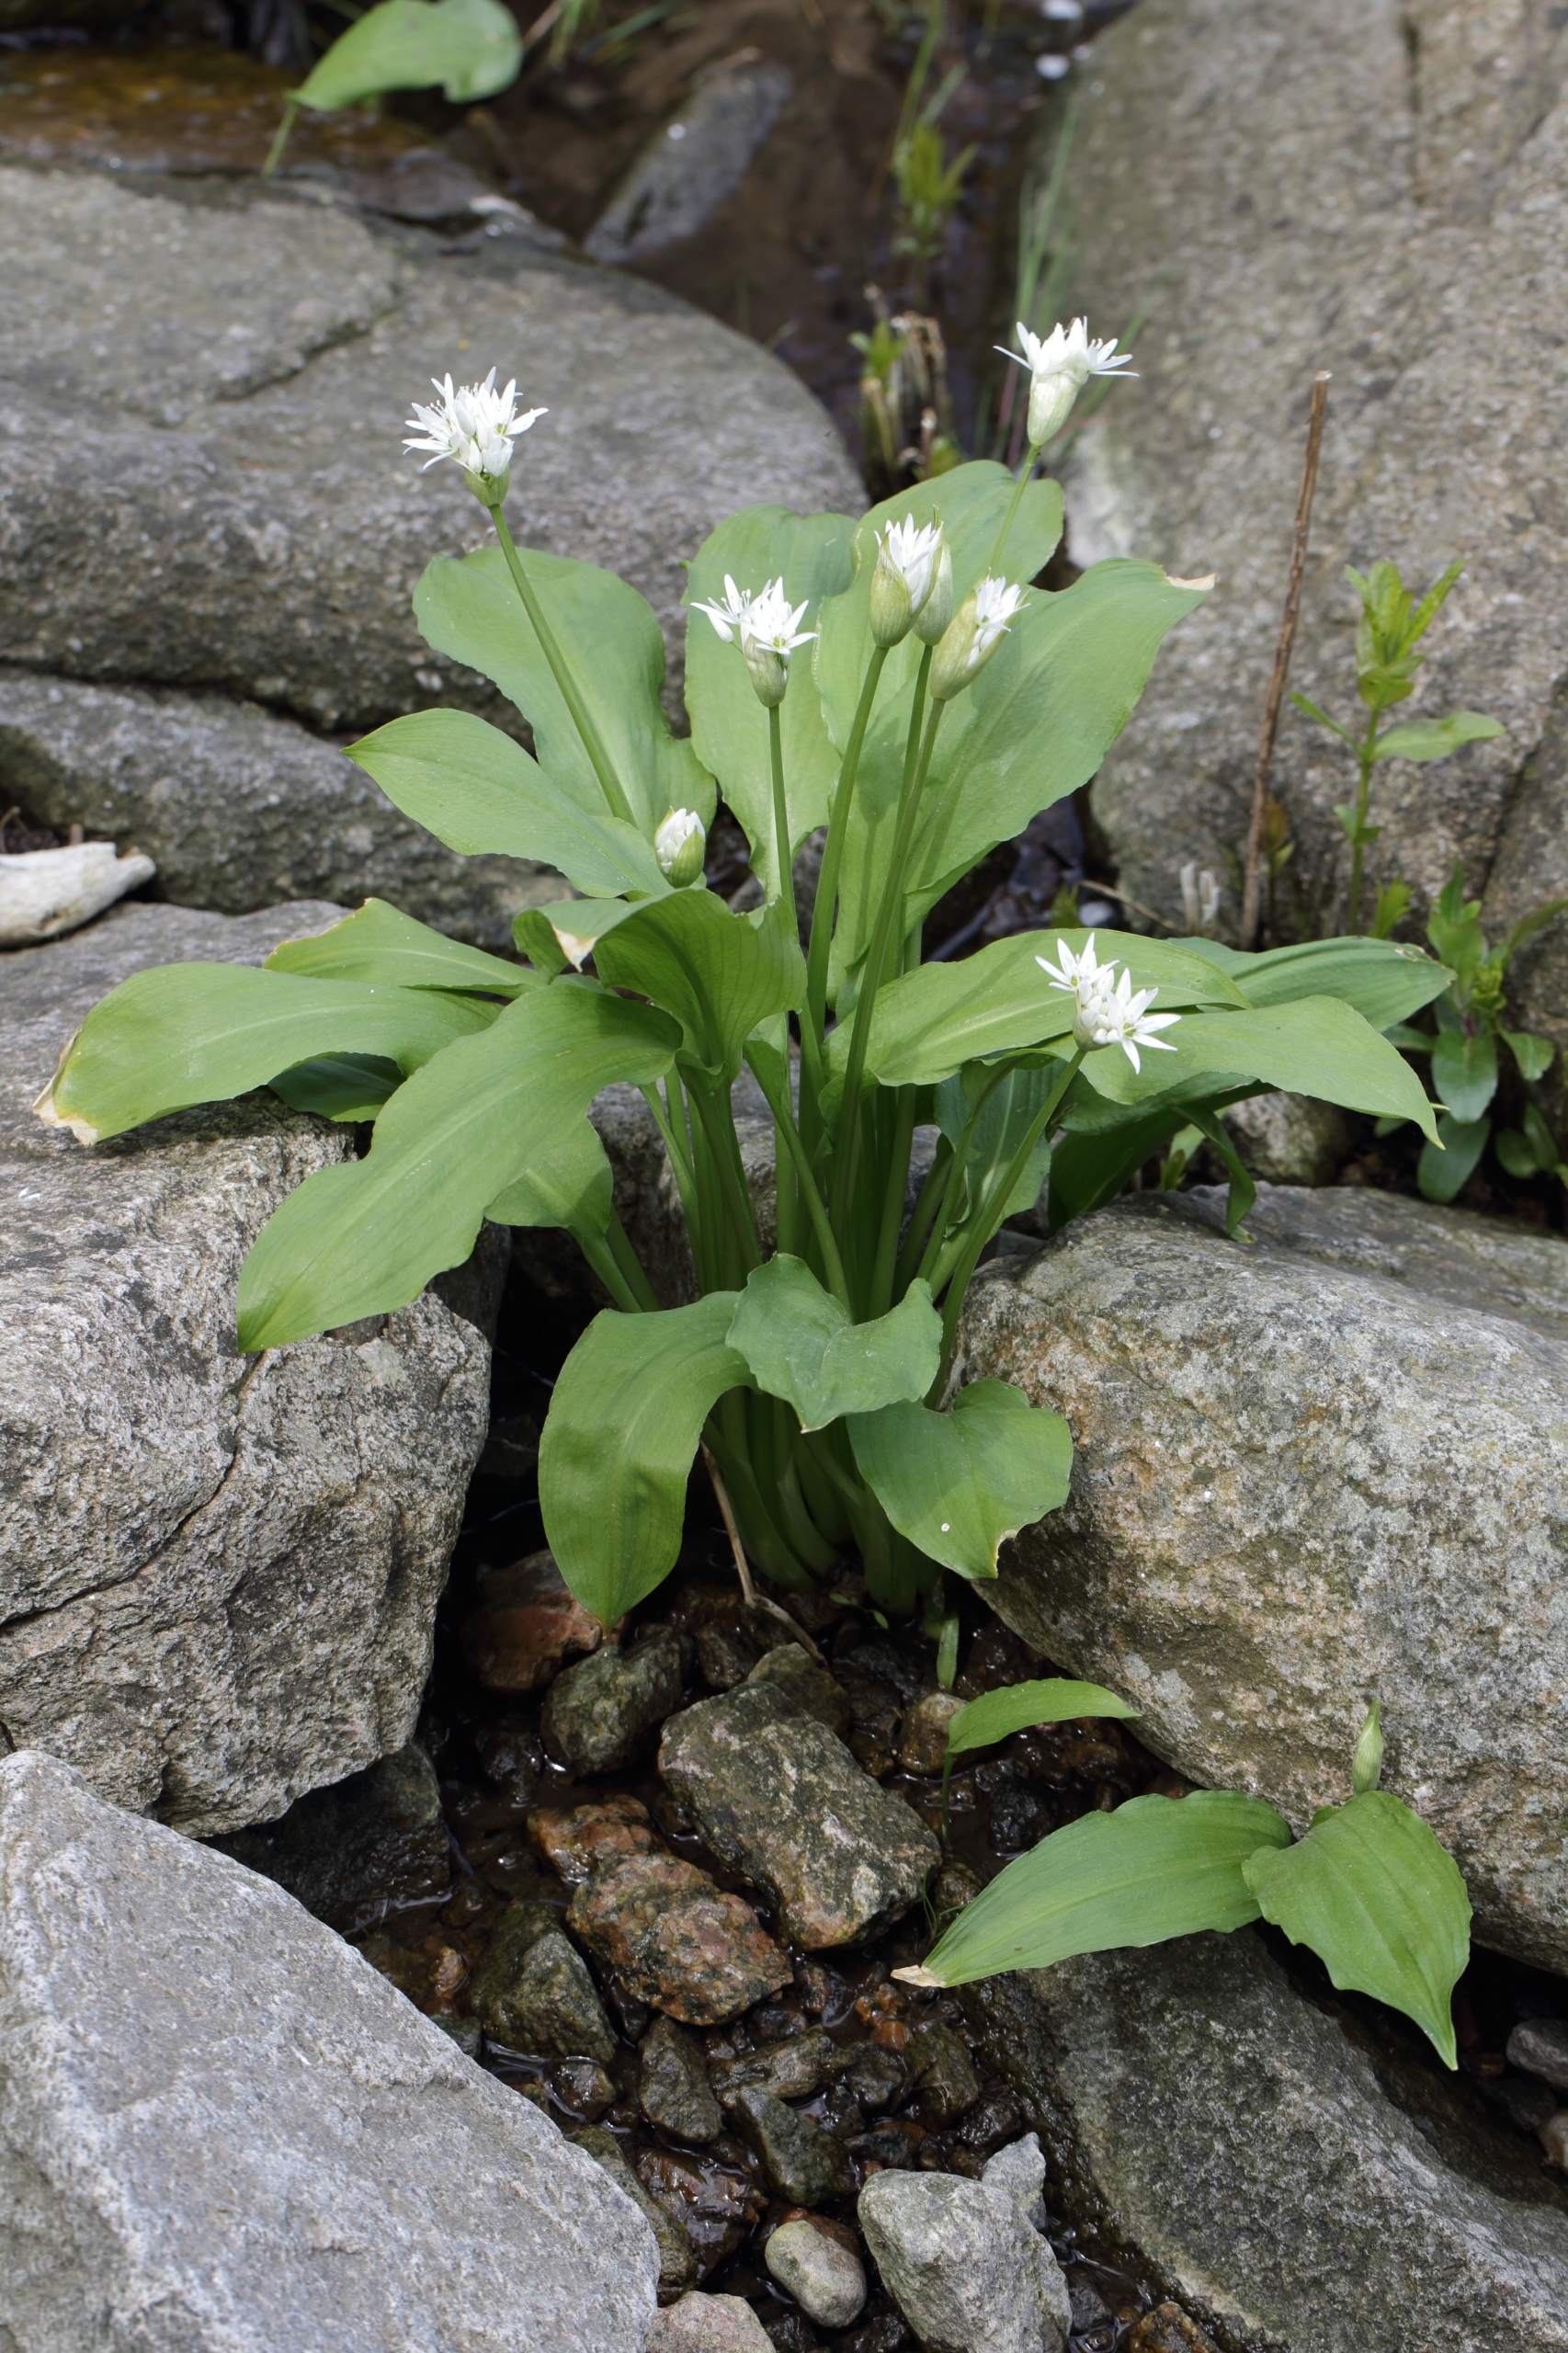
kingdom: Plantae
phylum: Tracheophyta
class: Liliopsida
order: Asparagales
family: Amaryllidaceae
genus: Allium
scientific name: Allium ursinum
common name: Rams-løg
